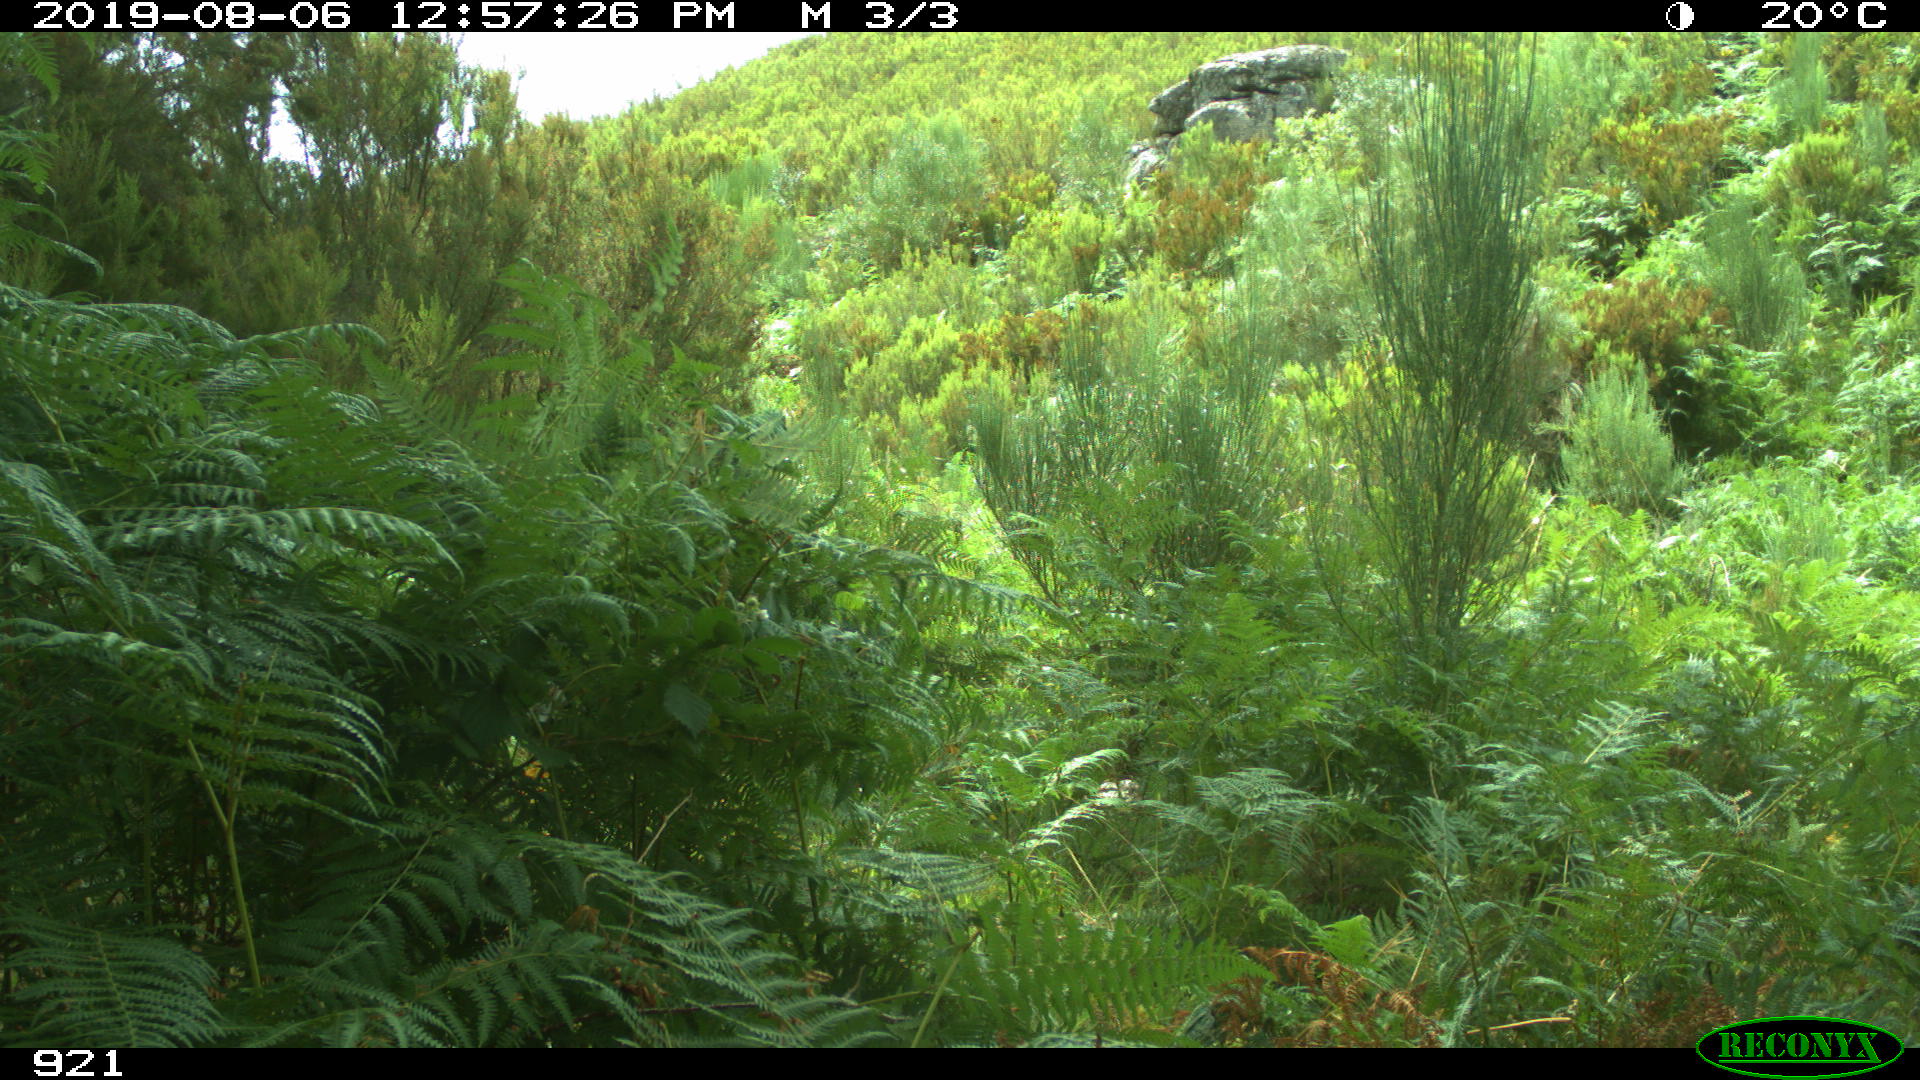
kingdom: Animalia
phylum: Chordata
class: Mammalia
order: Perissodactyla
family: Equidae
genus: Equus
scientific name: Equus caballus
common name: Horse
